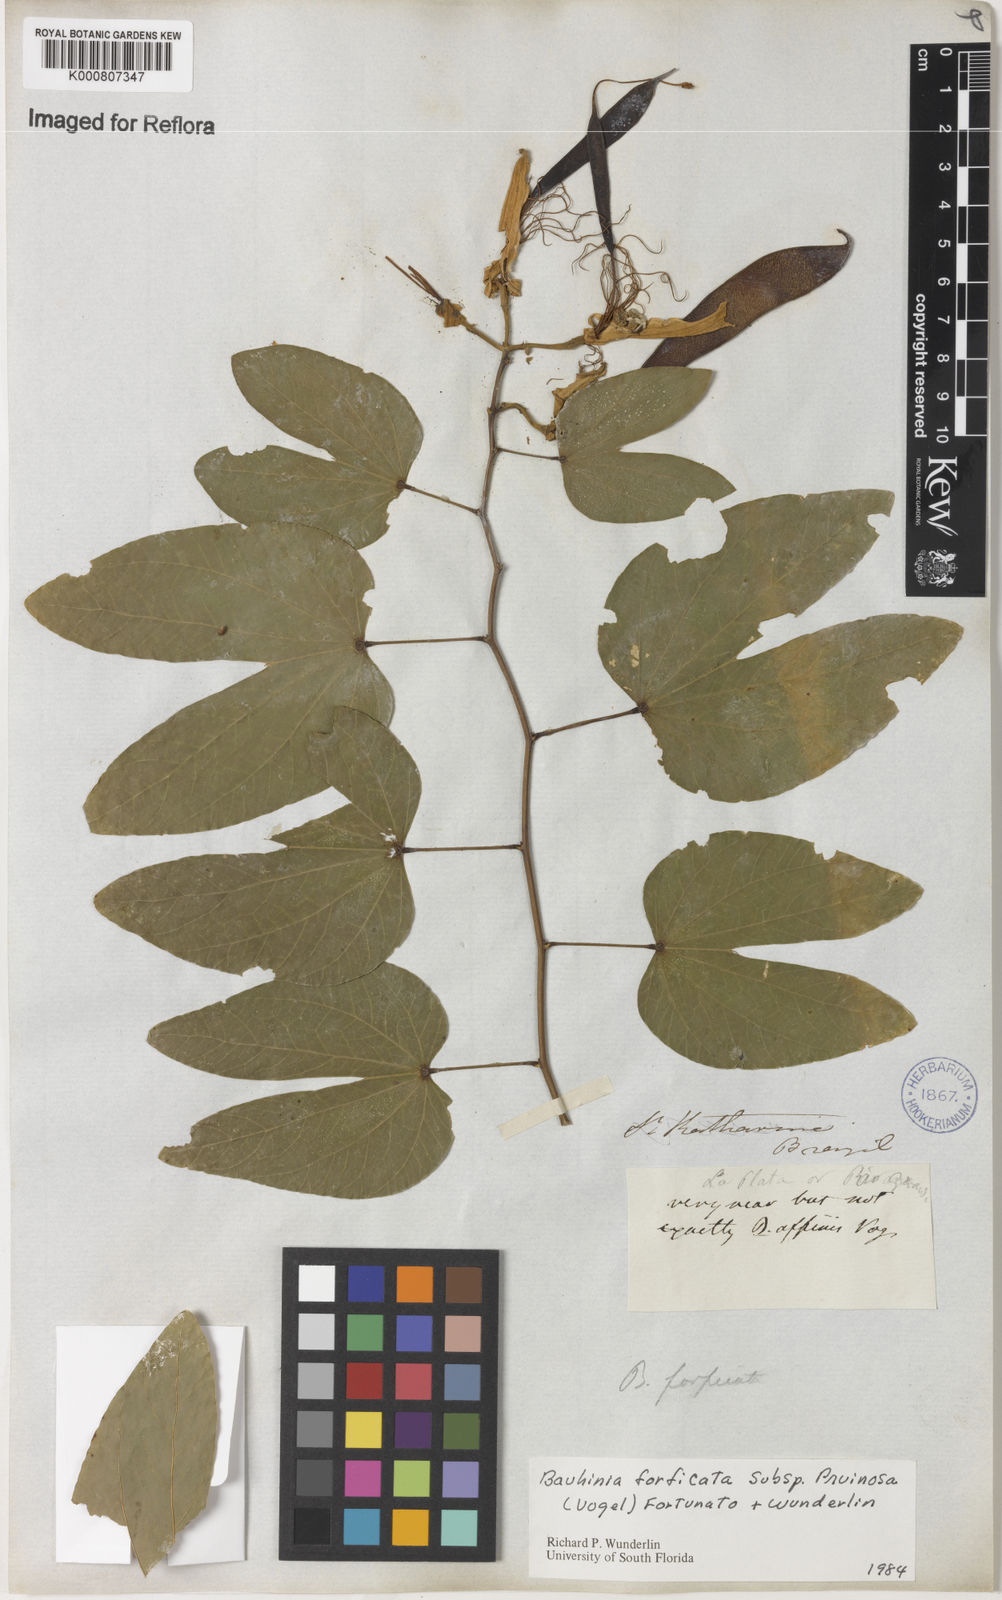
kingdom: Plantae
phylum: Tracheophyta
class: Magnoliopsida
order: Fabales
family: Fabaceae
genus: Bauhinia
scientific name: Bauhinia forficata
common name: Orchid tree
